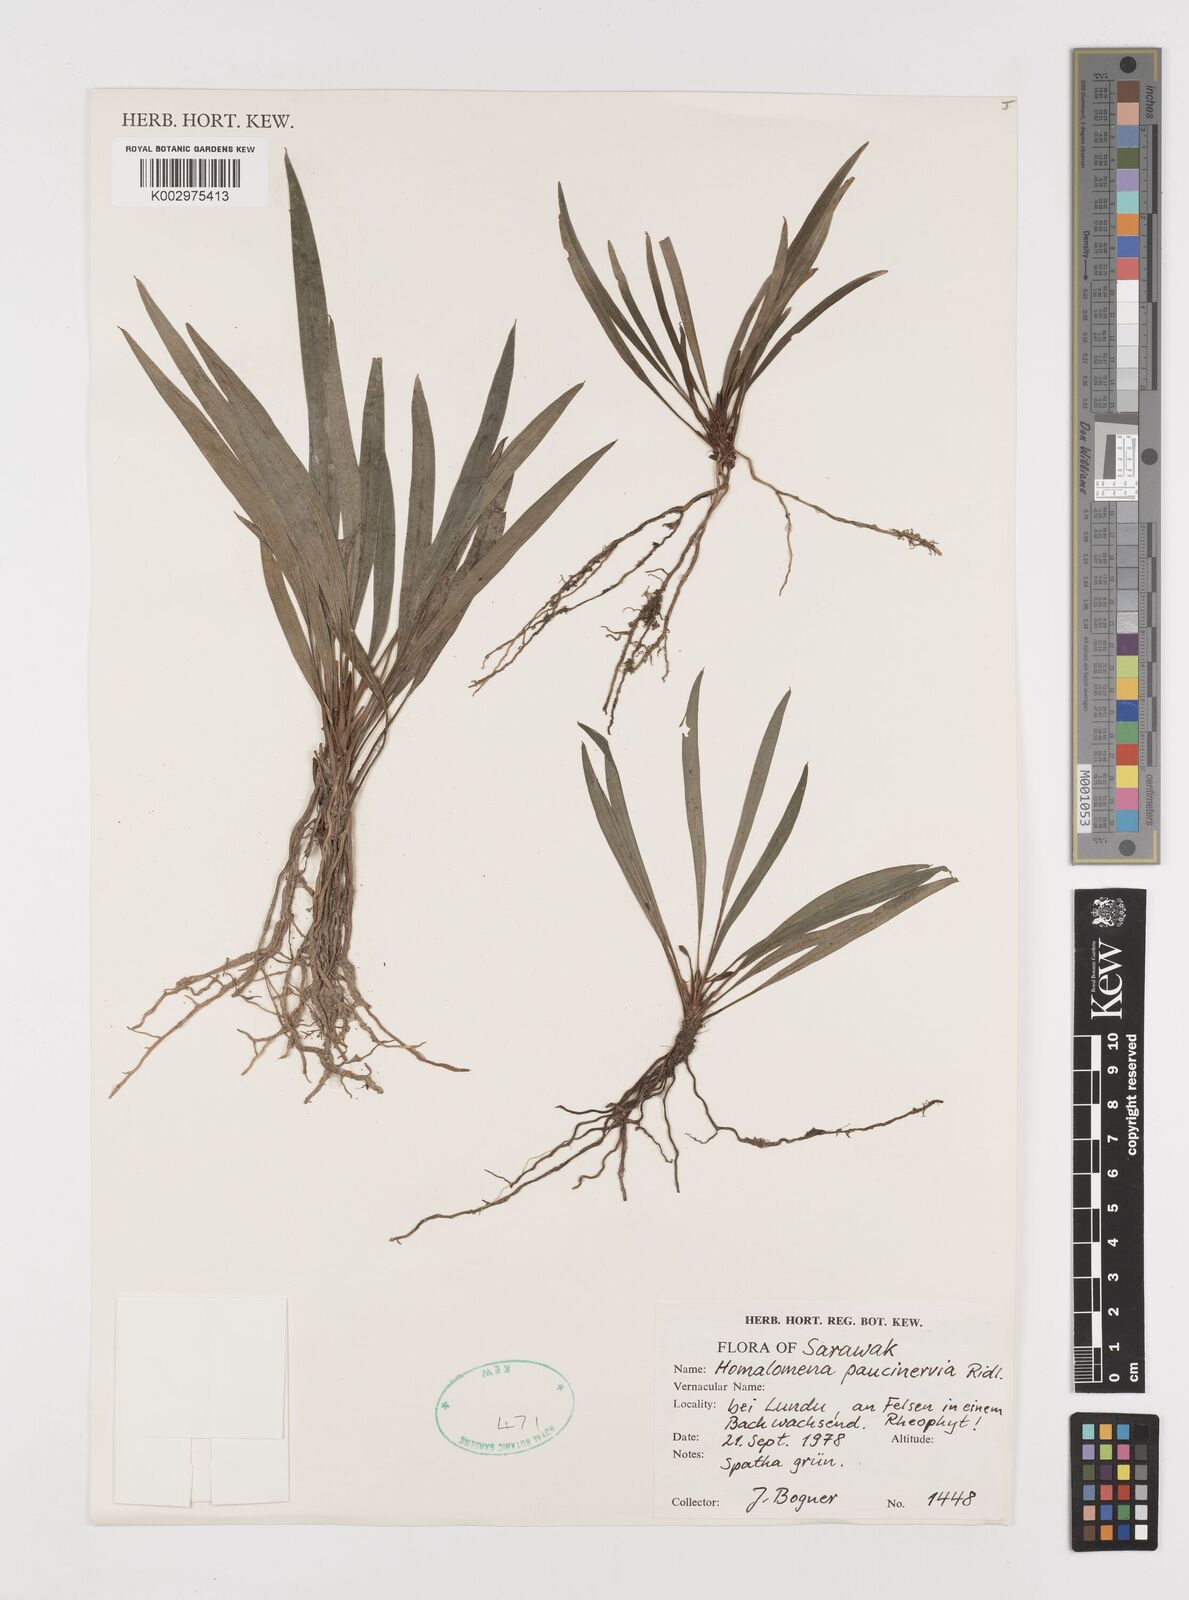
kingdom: Plantae
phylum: Tracheophyta
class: Liliopsida
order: Alismatales
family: Araceae
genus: Homalomena
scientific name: Homalomena consobrina
